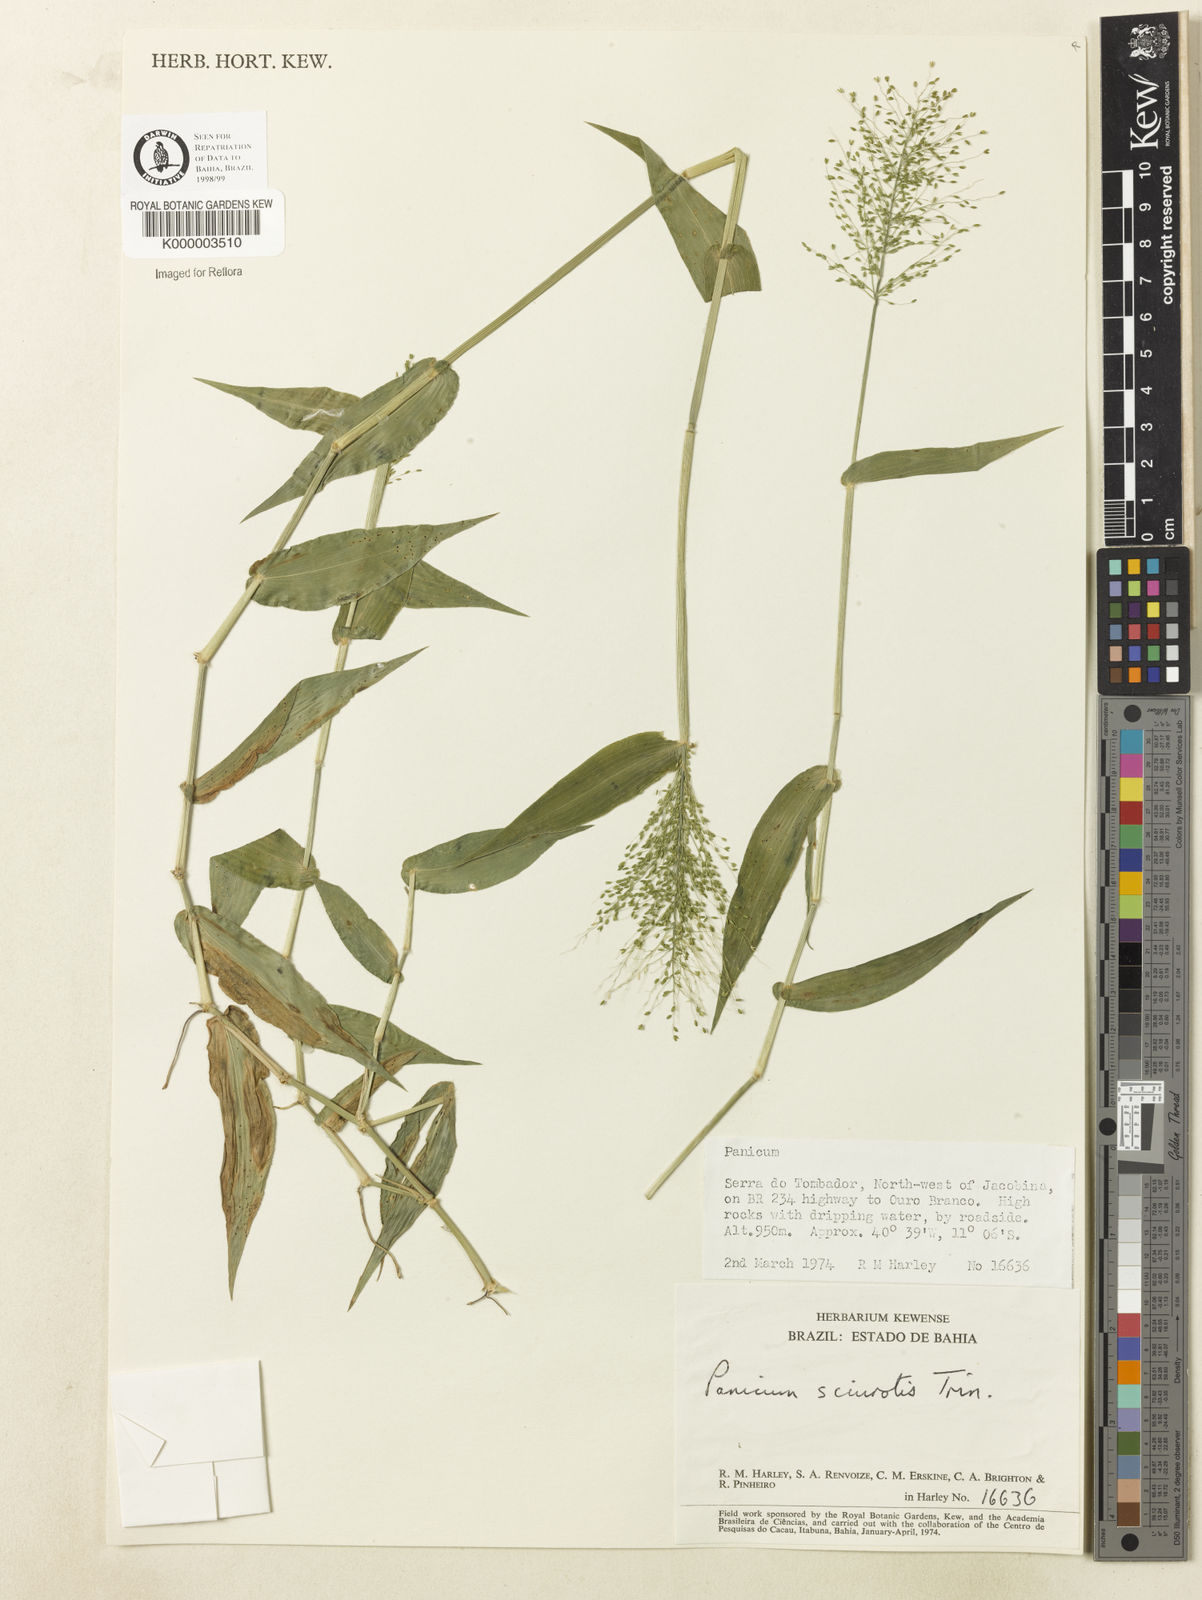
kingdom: Plantae
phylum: Tracheophyta
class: Liliopsida
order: Poales
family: Poaceae
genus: Dichanthelium
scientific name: Dichanthelium sciurotoides
